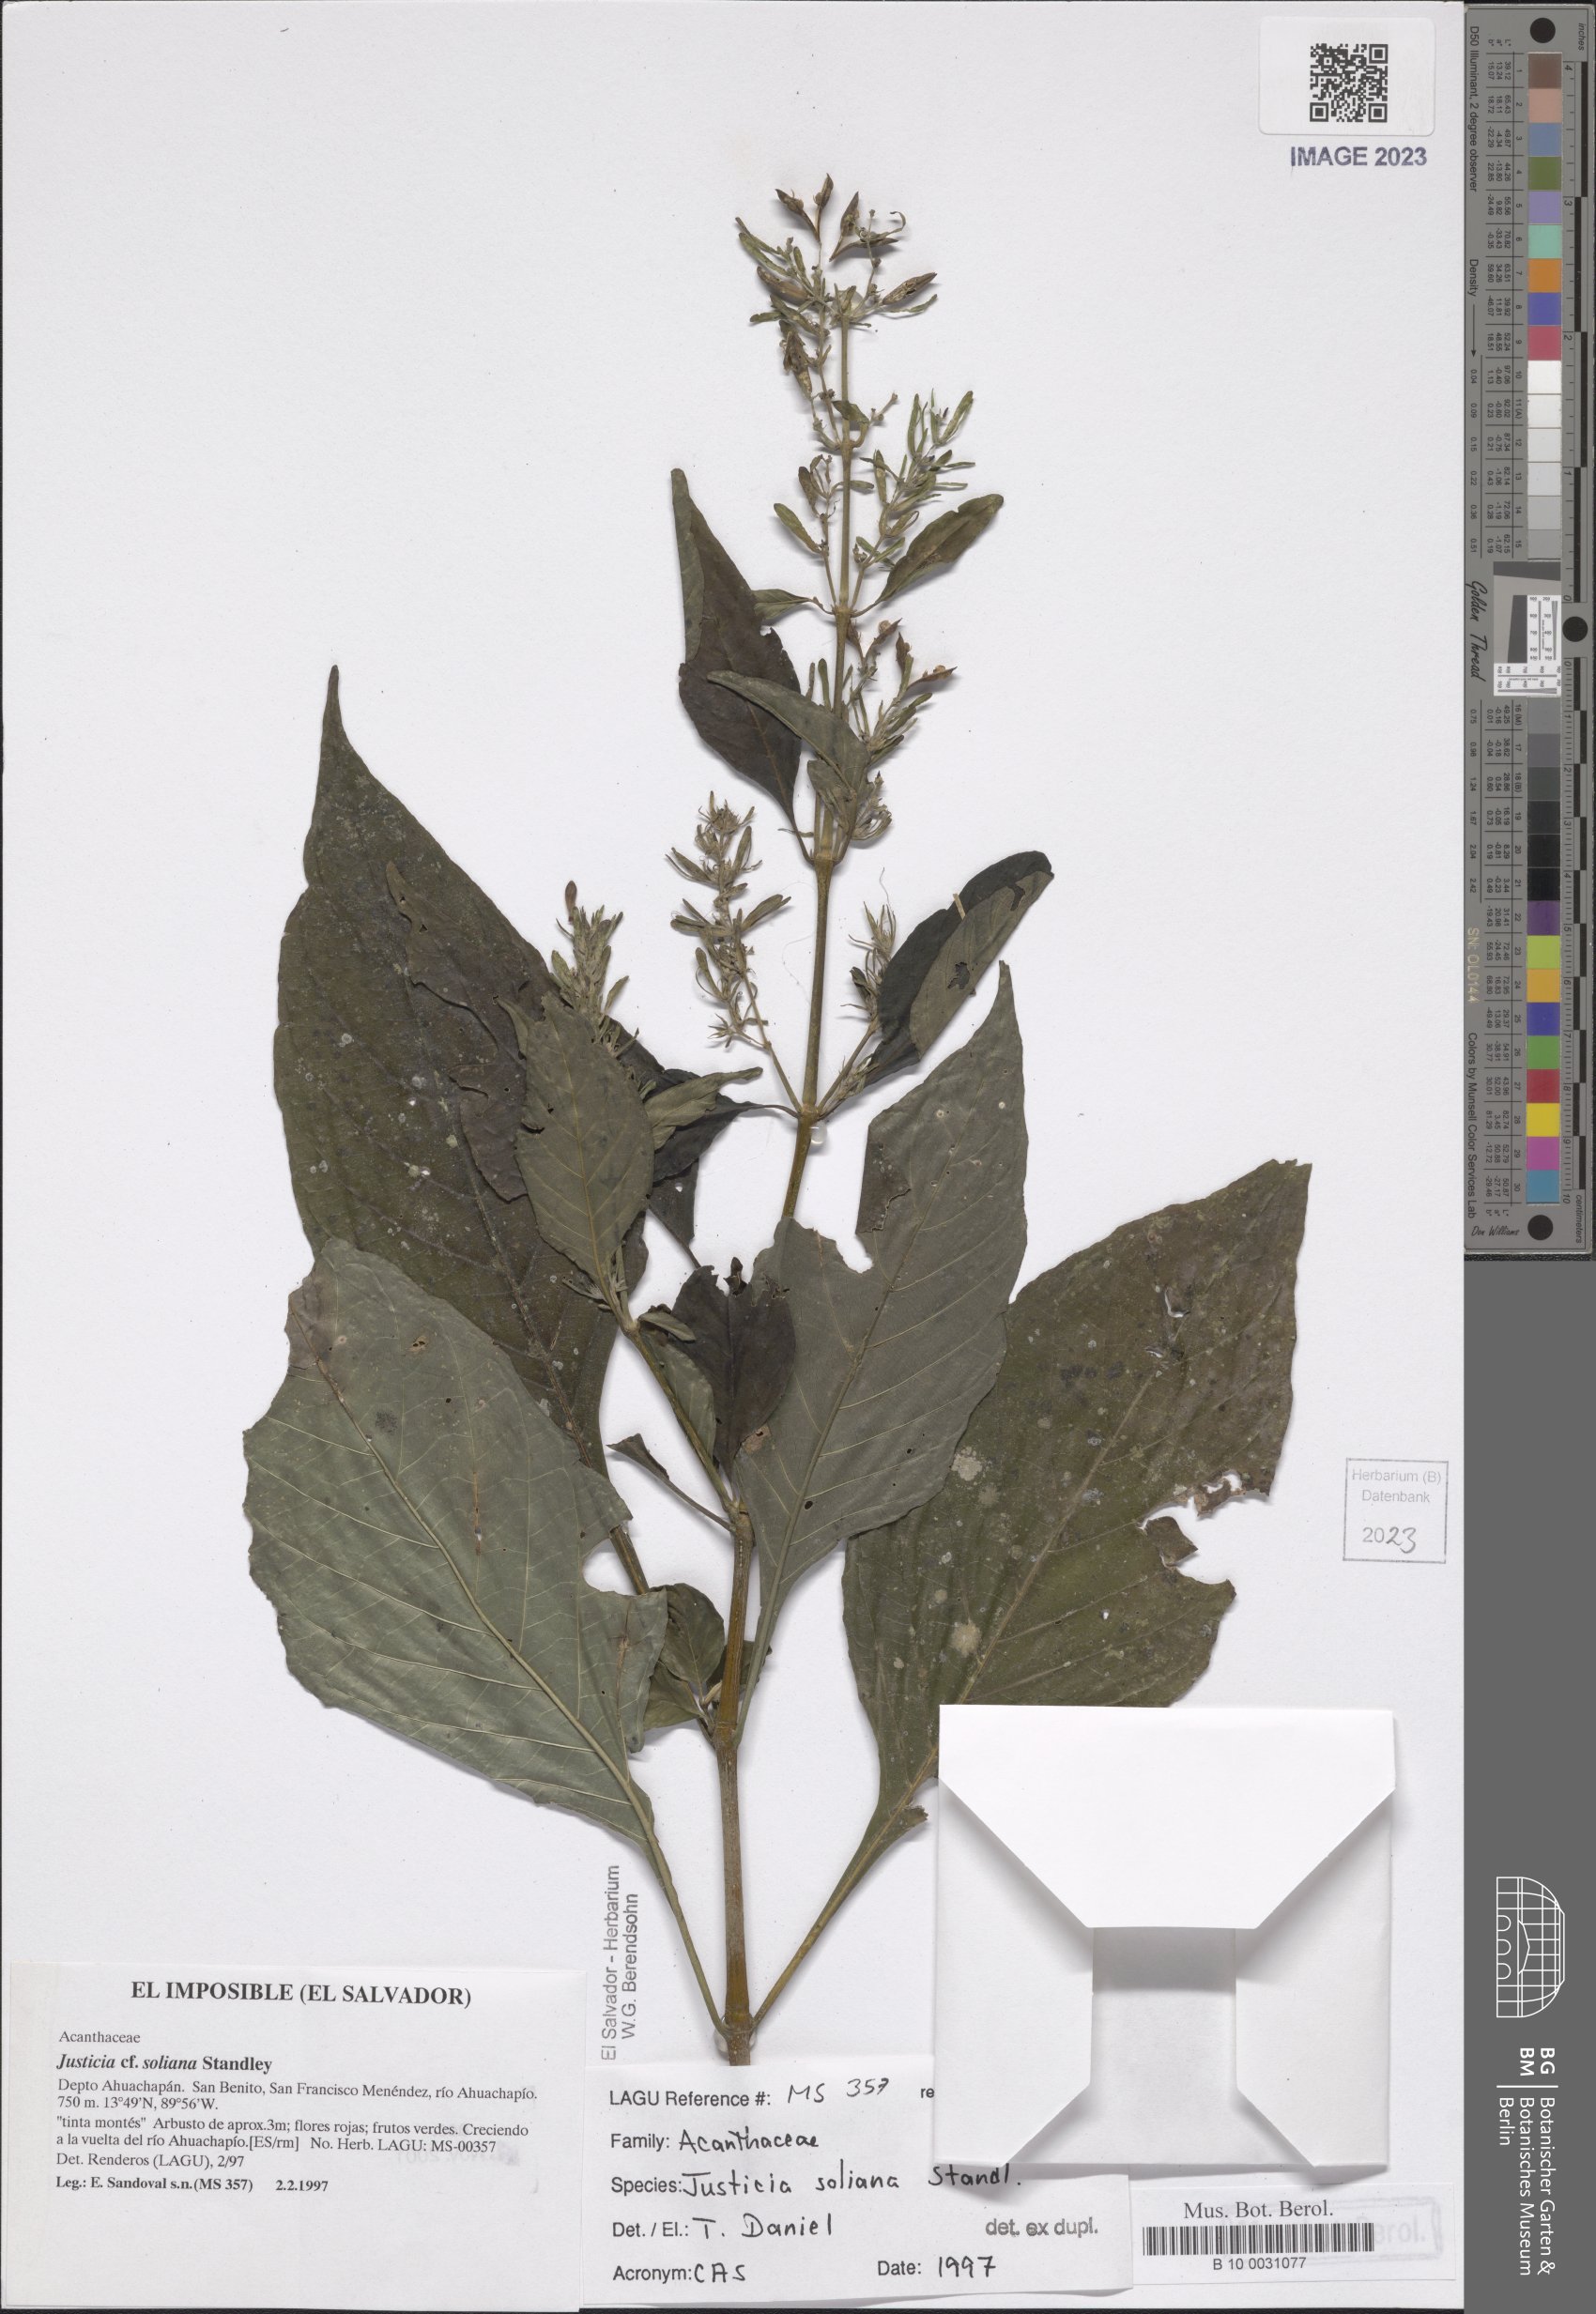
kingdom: Plantae
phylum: Tracheophyta
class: Magnoliopsida
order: Lamiales
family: Acanthaceae
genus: Justicia
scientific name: Justicia soliana
